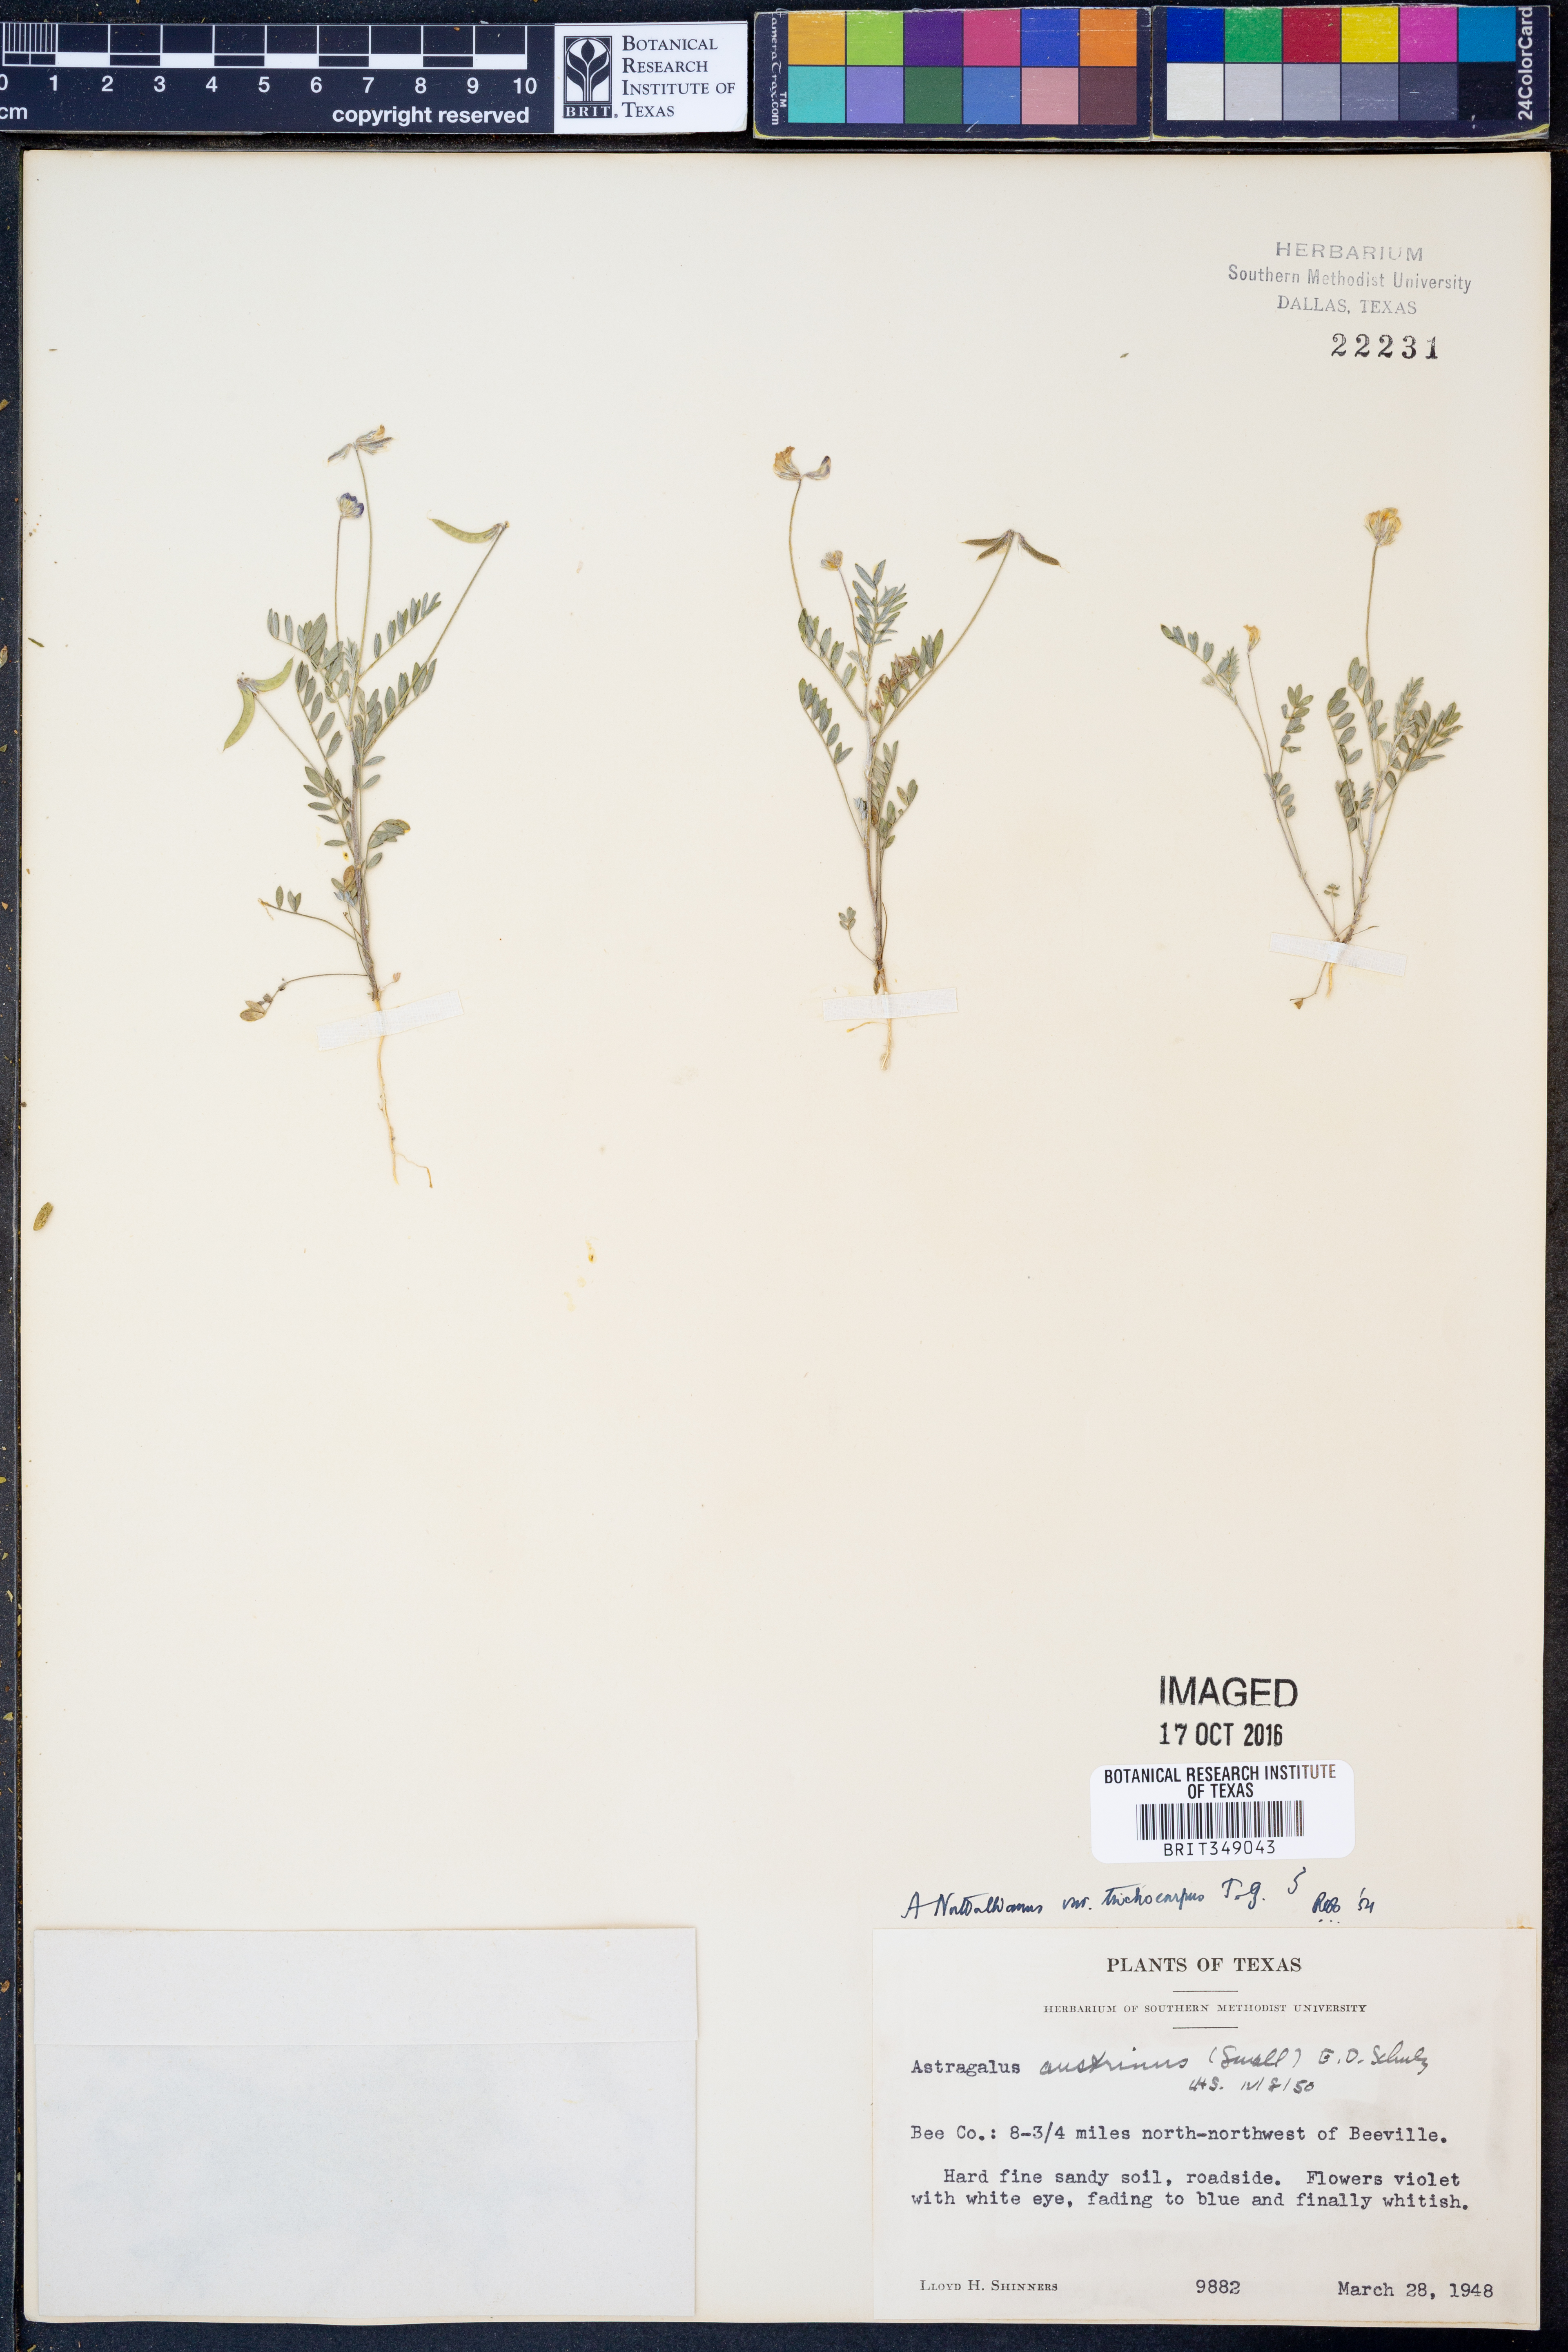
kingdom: Plantae
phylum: Tracheophyta
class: Magnoliopsida
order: Fabales
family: Fabaceae
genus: Astragalus
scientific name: Astragalus nuttallianus
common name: Smallflowered milkvetch
